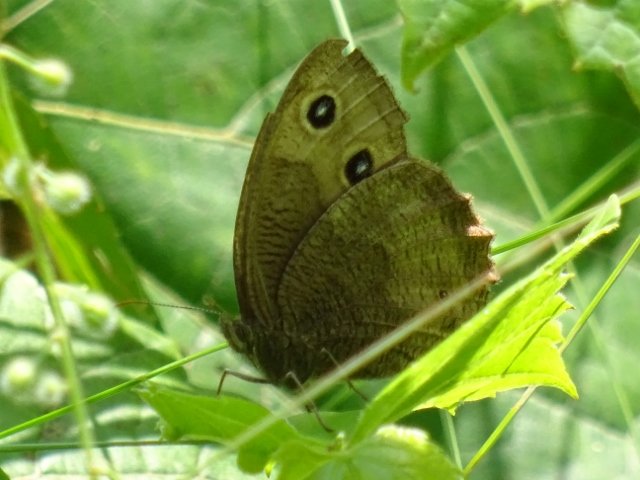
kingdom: Animalia
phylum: Arthropoda
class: Insecta
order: Lepidoptera
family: Nymphalidae
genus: Cercyonis
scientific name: Cercyonis pegala
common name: Common Wood-Nymph
